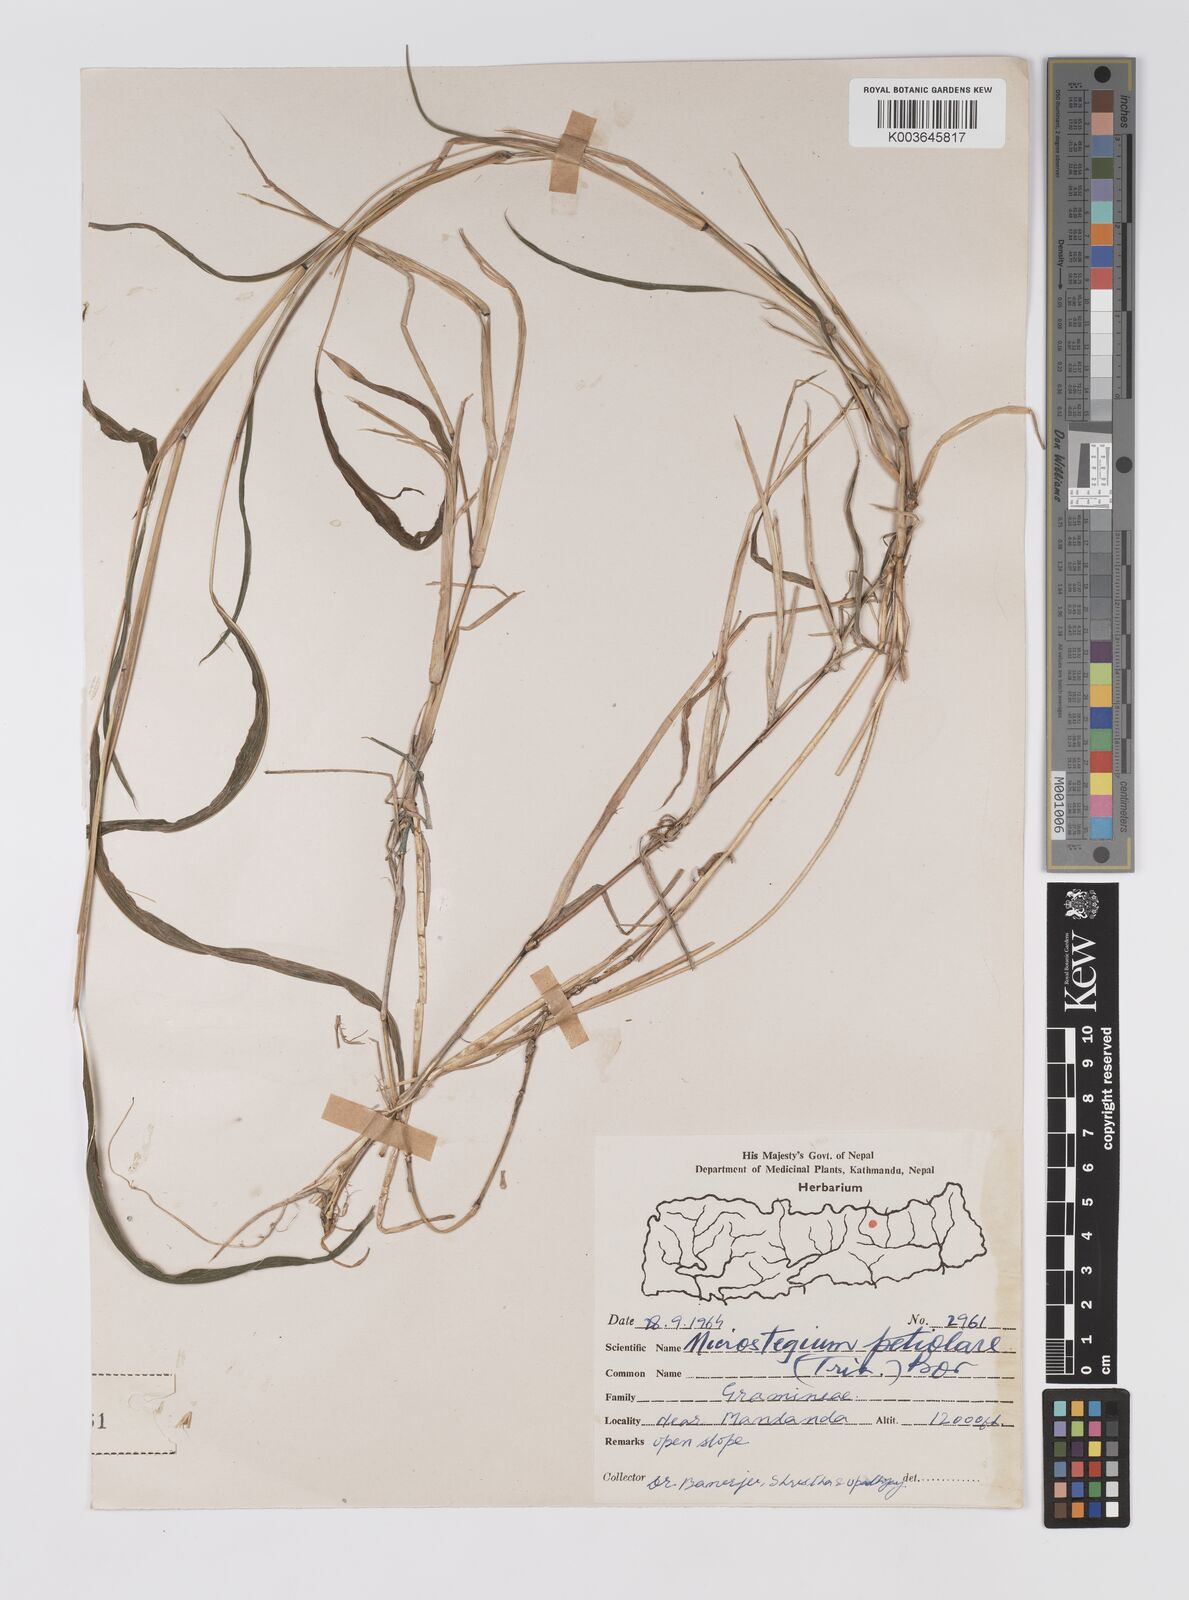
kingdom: Plantae
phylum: Tracheophyta
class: Liliopsida
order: Poales
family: Poaceae
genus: Microstegium
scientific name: Microstegium petiolare
